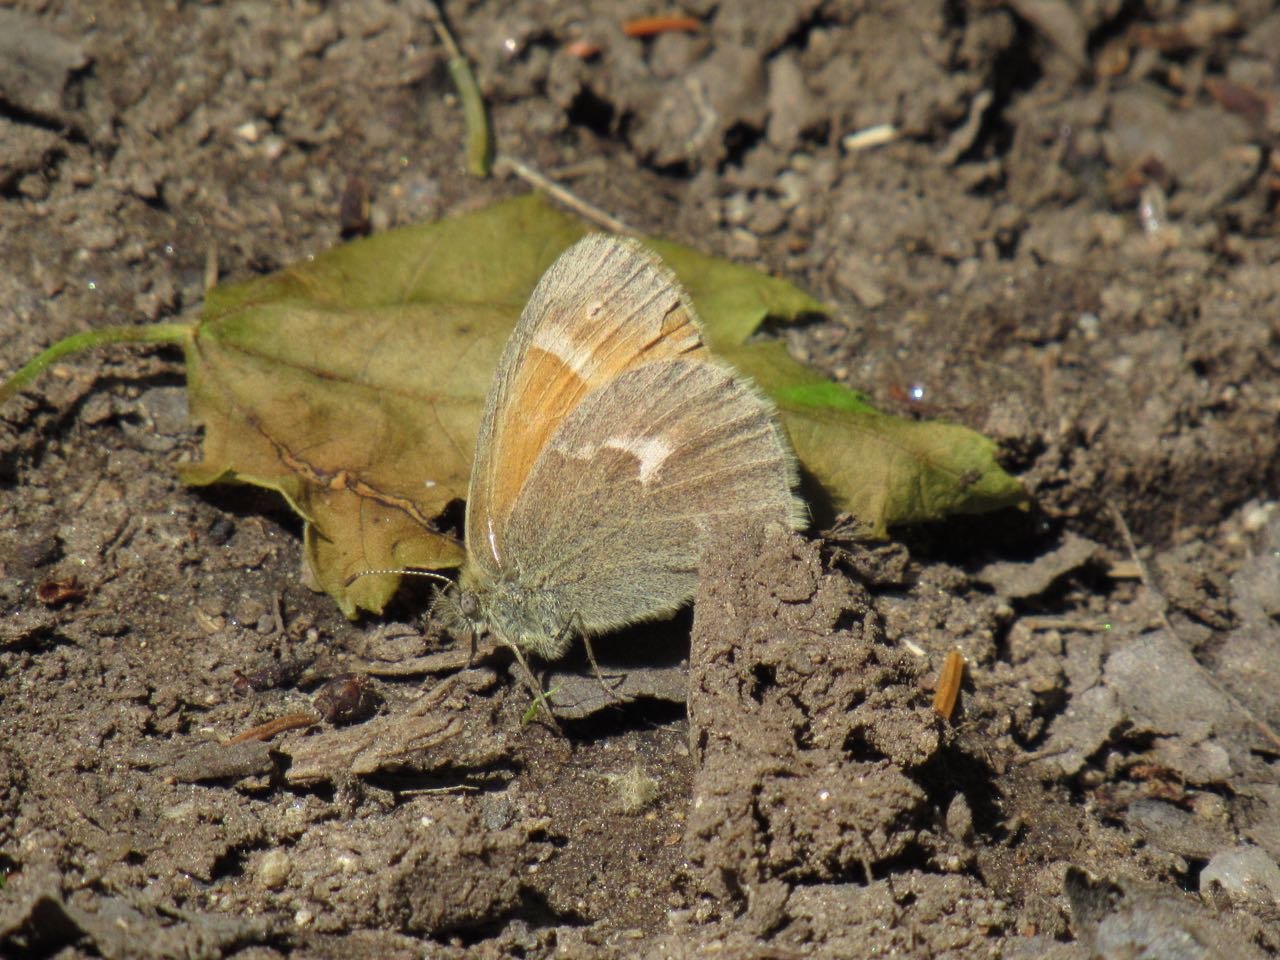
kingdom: Animalia
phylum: Arthropoda
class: Insecta
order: Lepidoptera
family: Nymphalidae
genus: Coenonympha
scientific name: Coenonympha tullia
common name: Large Heath
